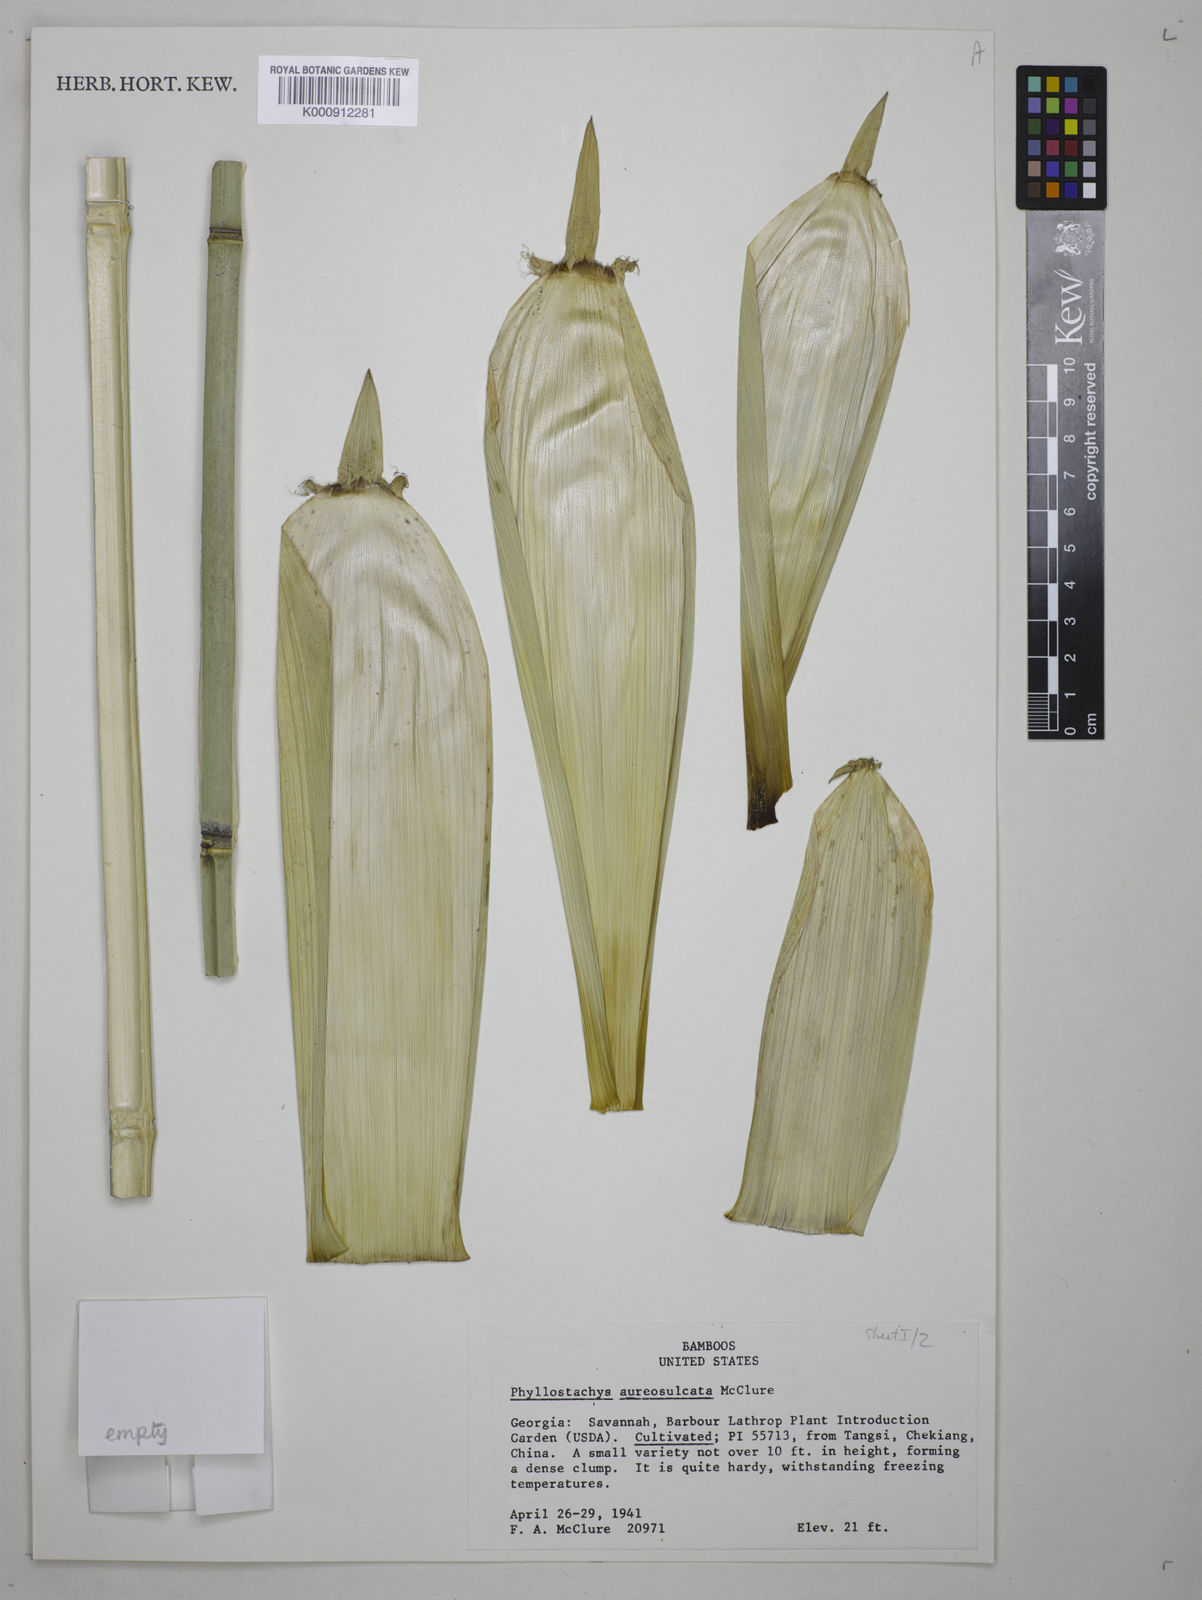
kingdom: Plantae
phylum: Tracheophyta
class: Liliopsida
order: Poales
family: Poaceae
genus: Phyllostachys
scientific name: Phyllostachys aureosulcata
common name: Yellow groove bamboo
